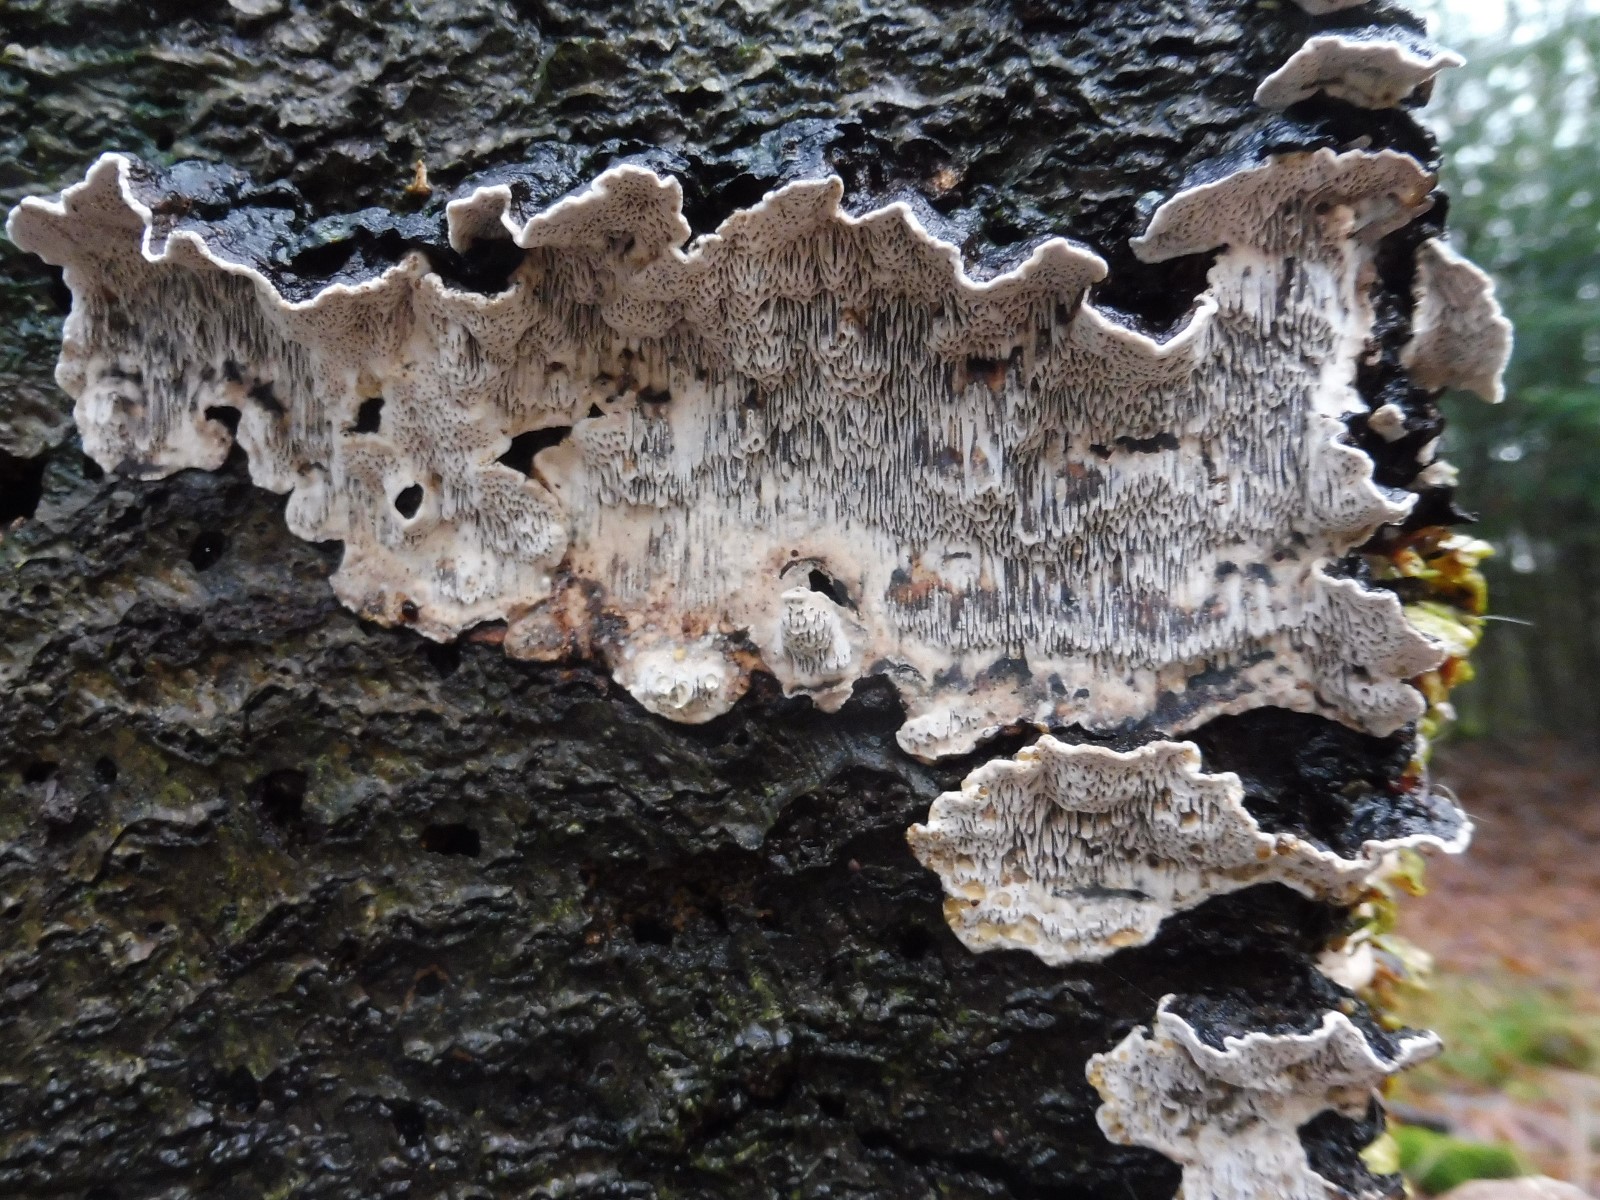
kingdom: Fungi
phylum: Basidiomycota
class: Agaricomycetes
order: Polyporales
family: Polyporaceae
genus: Podofomes
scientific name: Podofomes mollis
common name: blød begporesvamp
